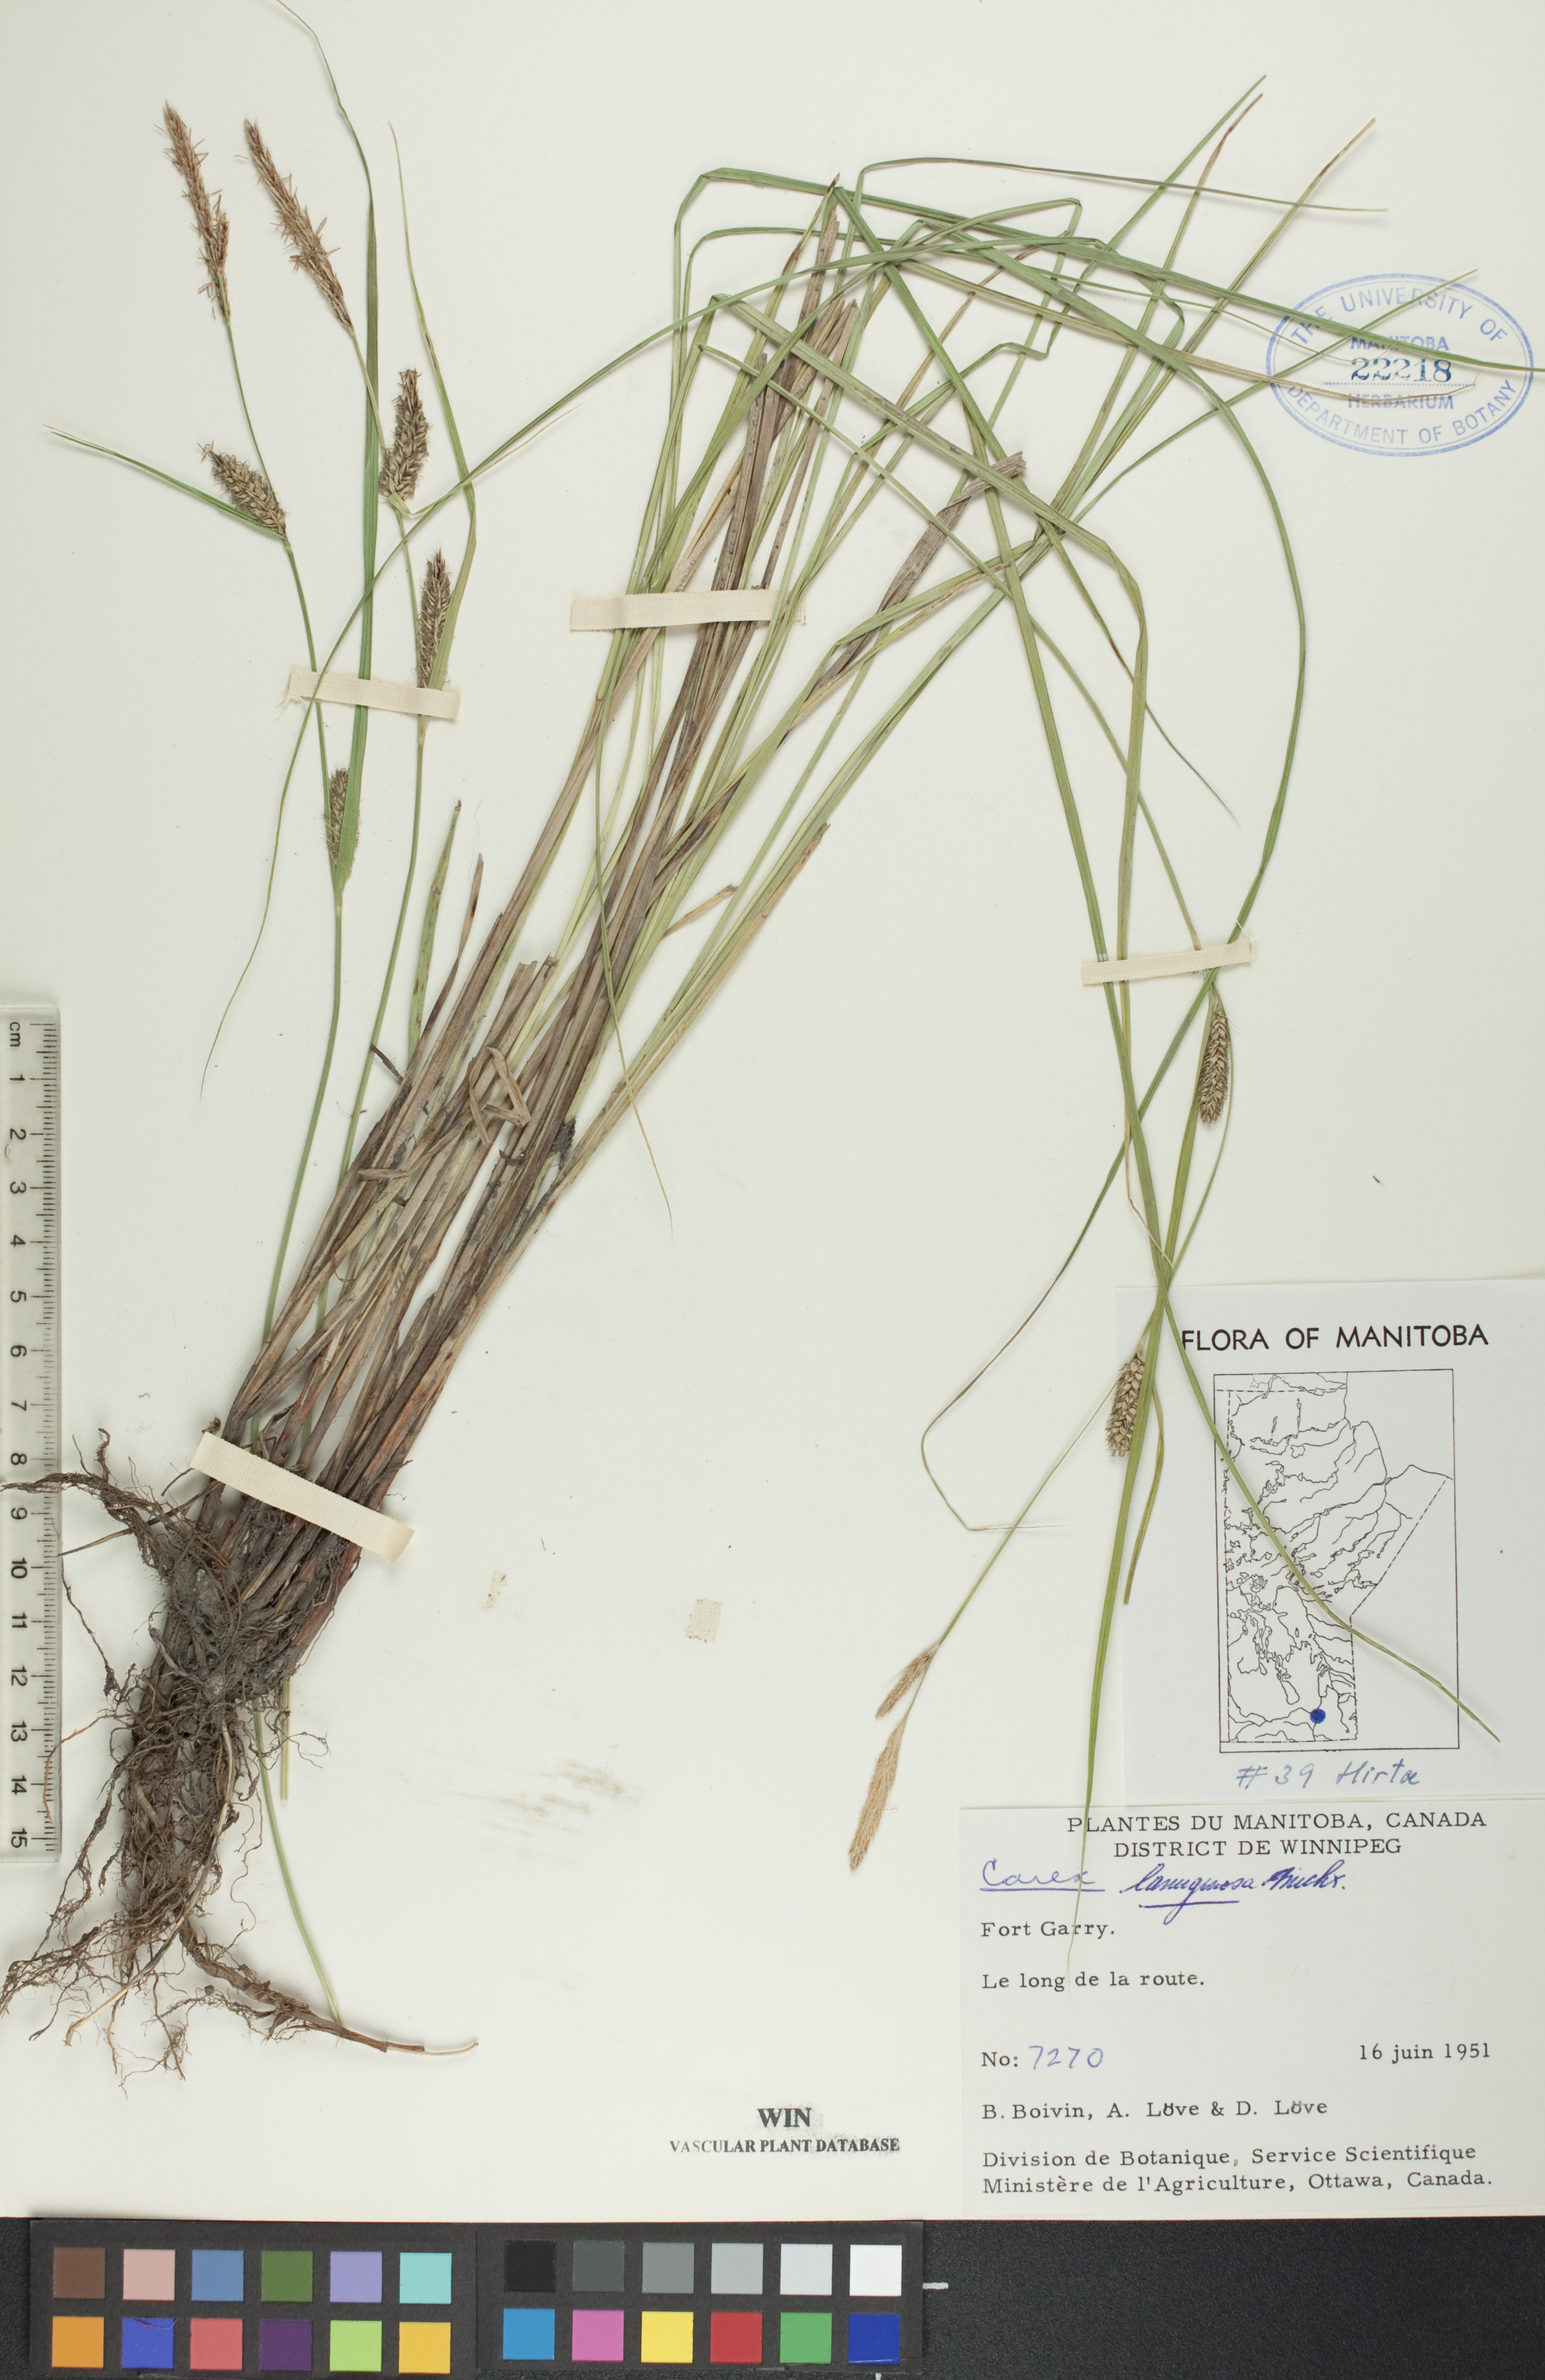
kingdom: Plantae
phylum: Tracheophyta
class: Liliopsida
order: Poales
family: Cyperaceae
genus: Carex
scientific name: Carex lasiocarpa
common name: Slender sedge
